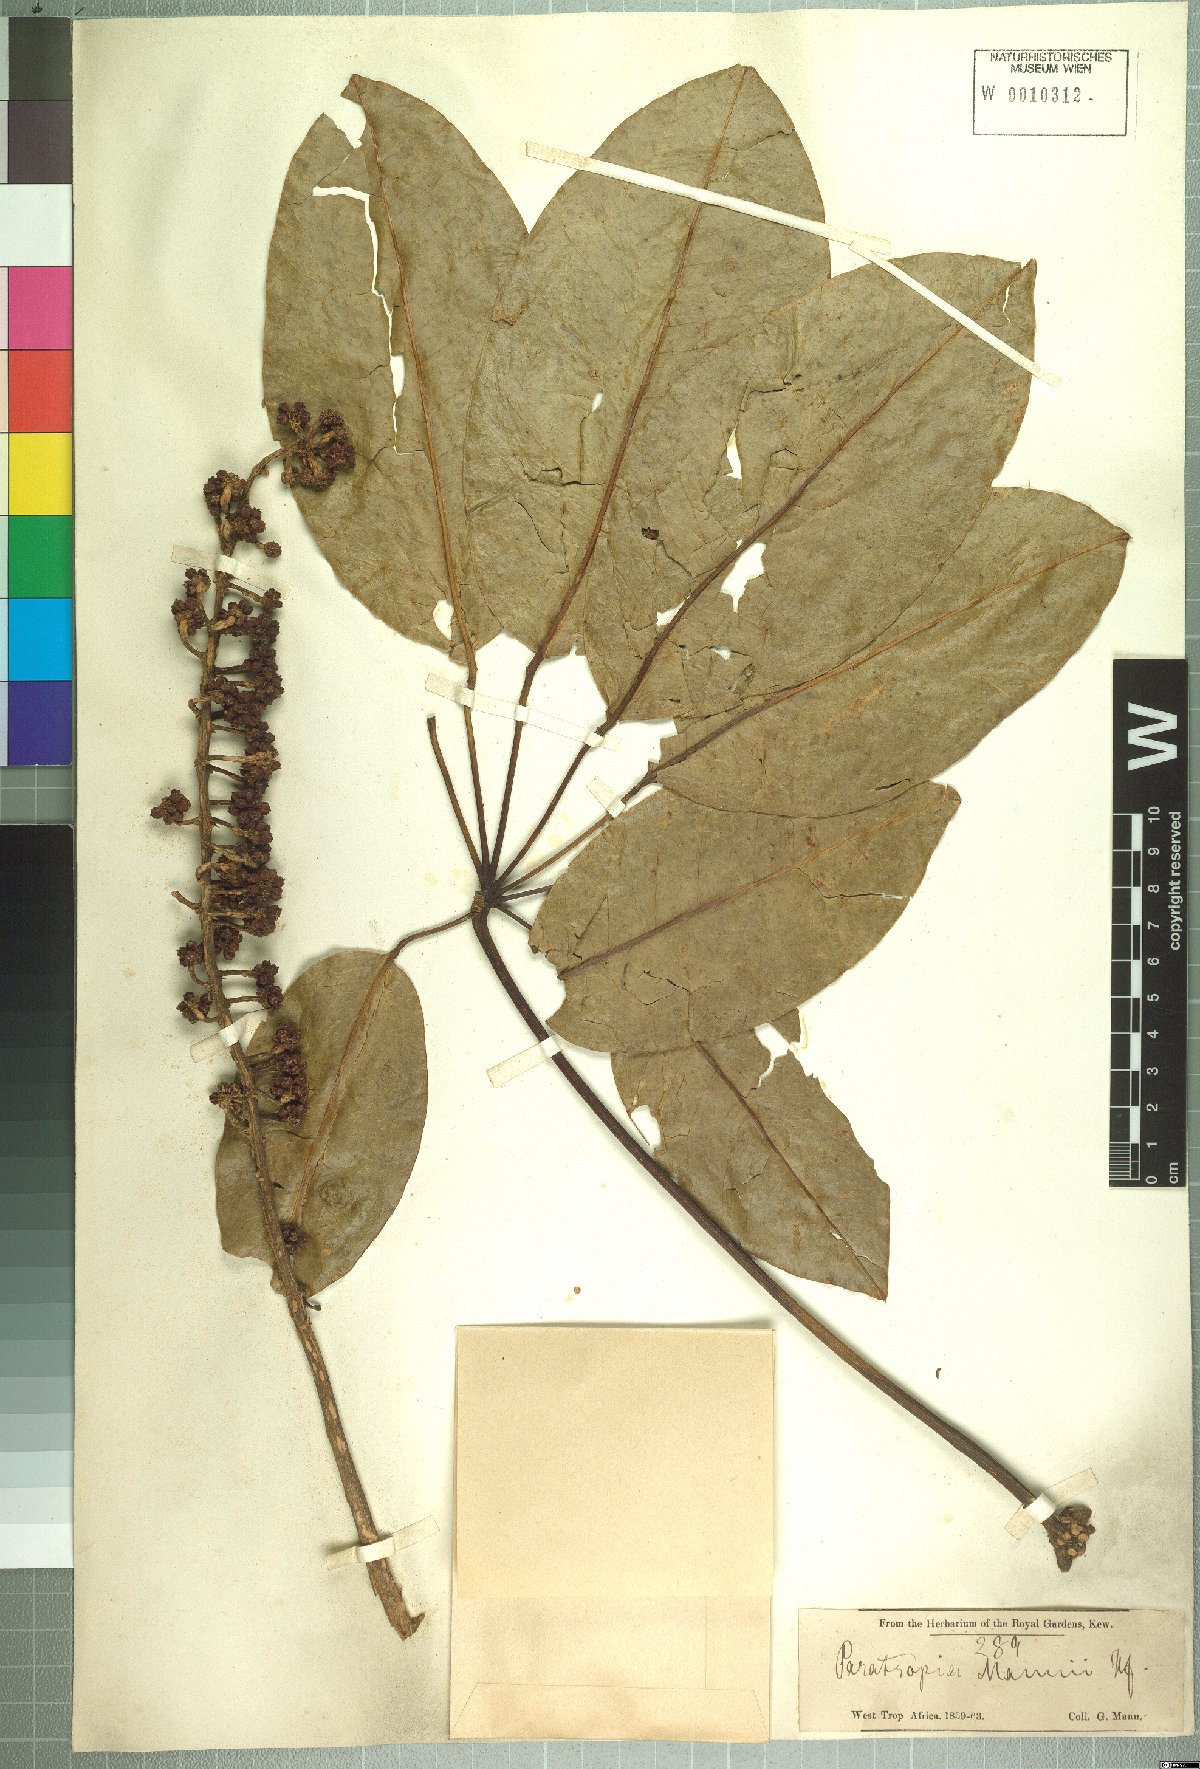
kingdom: Plantae
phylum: Tracheophyta
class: Magnoliopsida
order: Apiales
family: Araliaceae
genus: Astropanax
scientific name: Astropanax mannii
